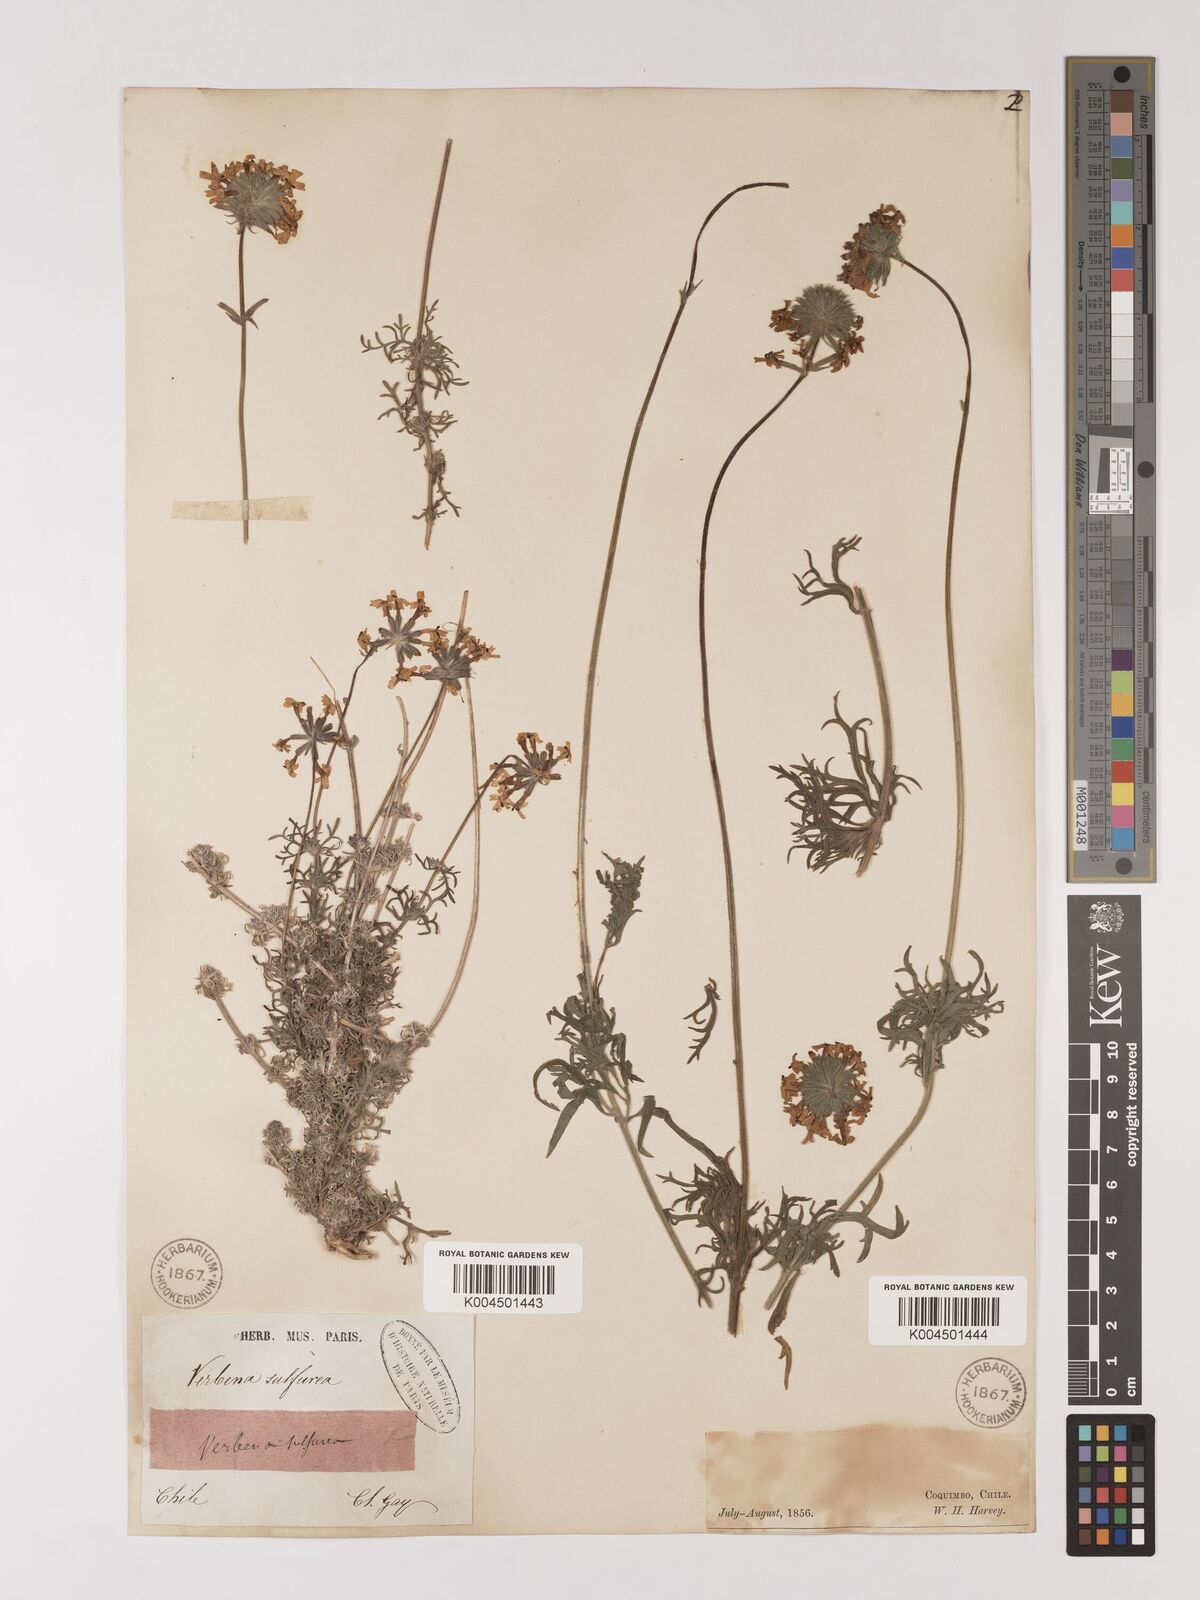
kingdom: Plantae
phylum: Tracheophyta
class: Magnoliopsida
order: Lamiales
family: Verbenaceae
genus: Verbena
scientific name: Verbena sulphurea
